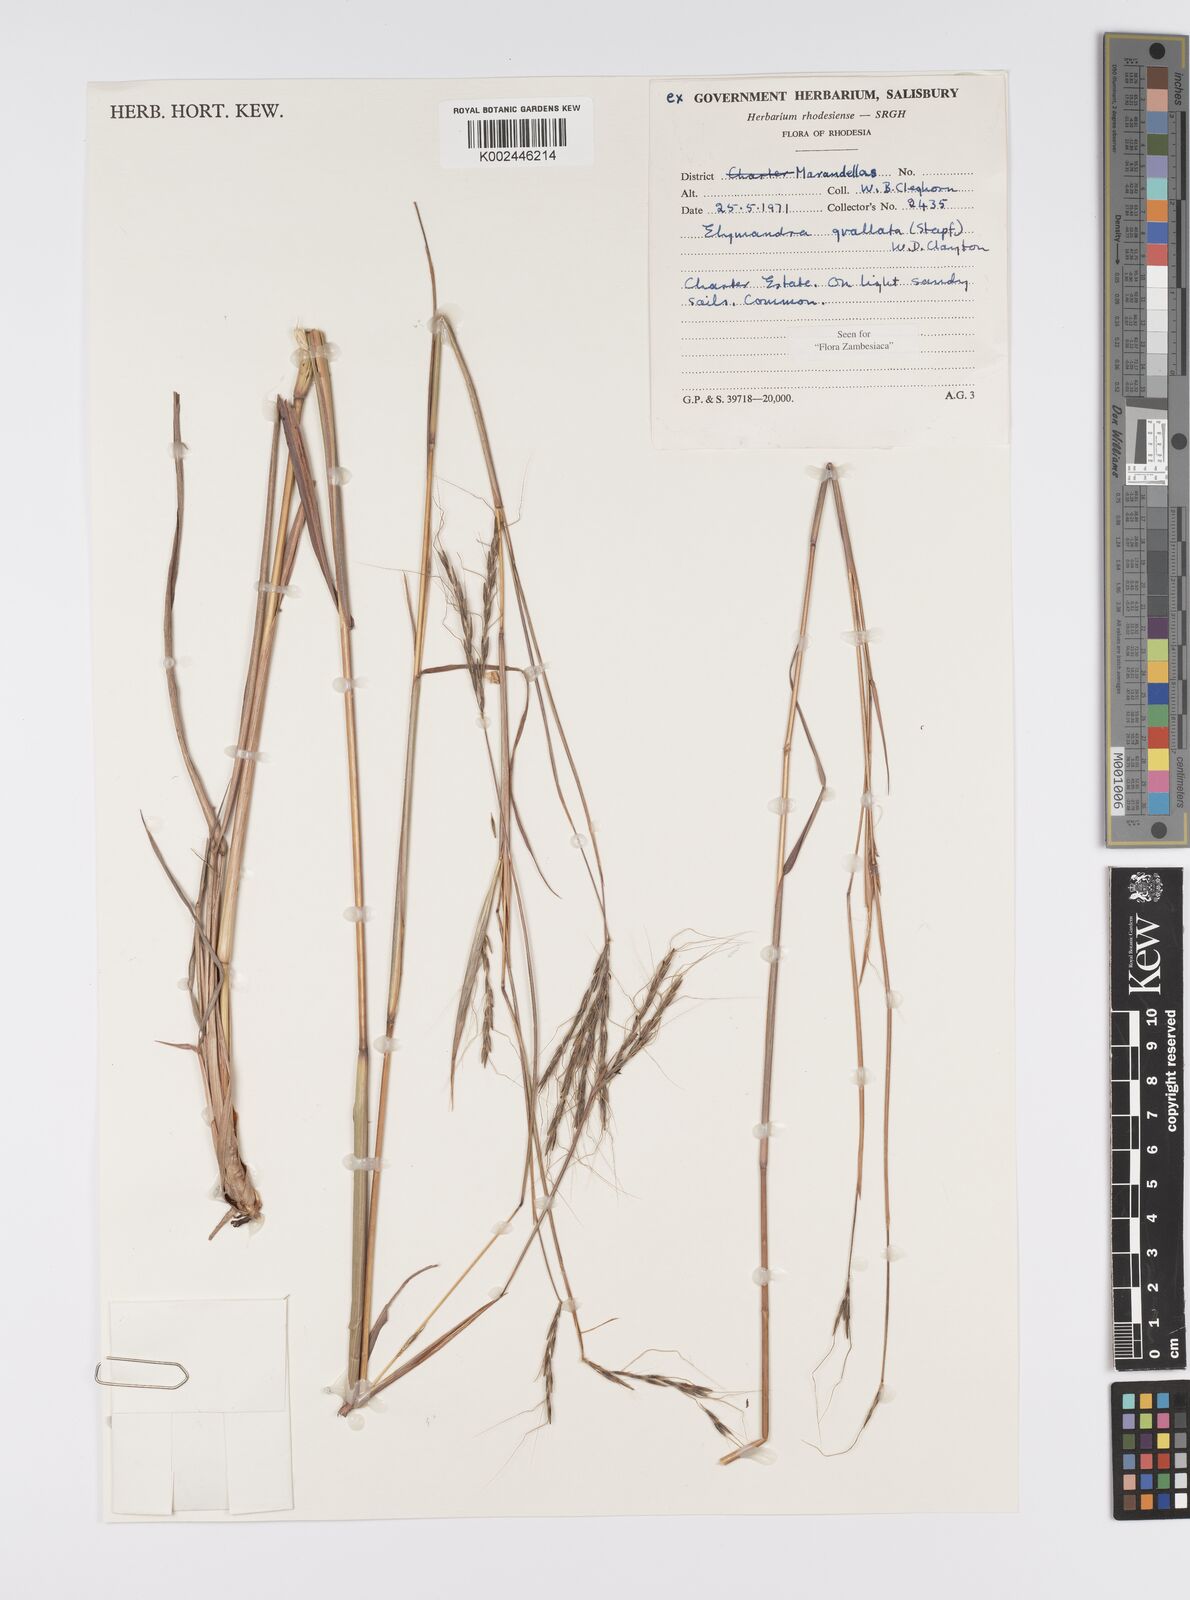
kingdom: Plantae
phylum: Tracheophyta
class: Liliopsida
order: Poales
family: Poaceae
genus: Elymandra
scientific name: Elymandra grallata
